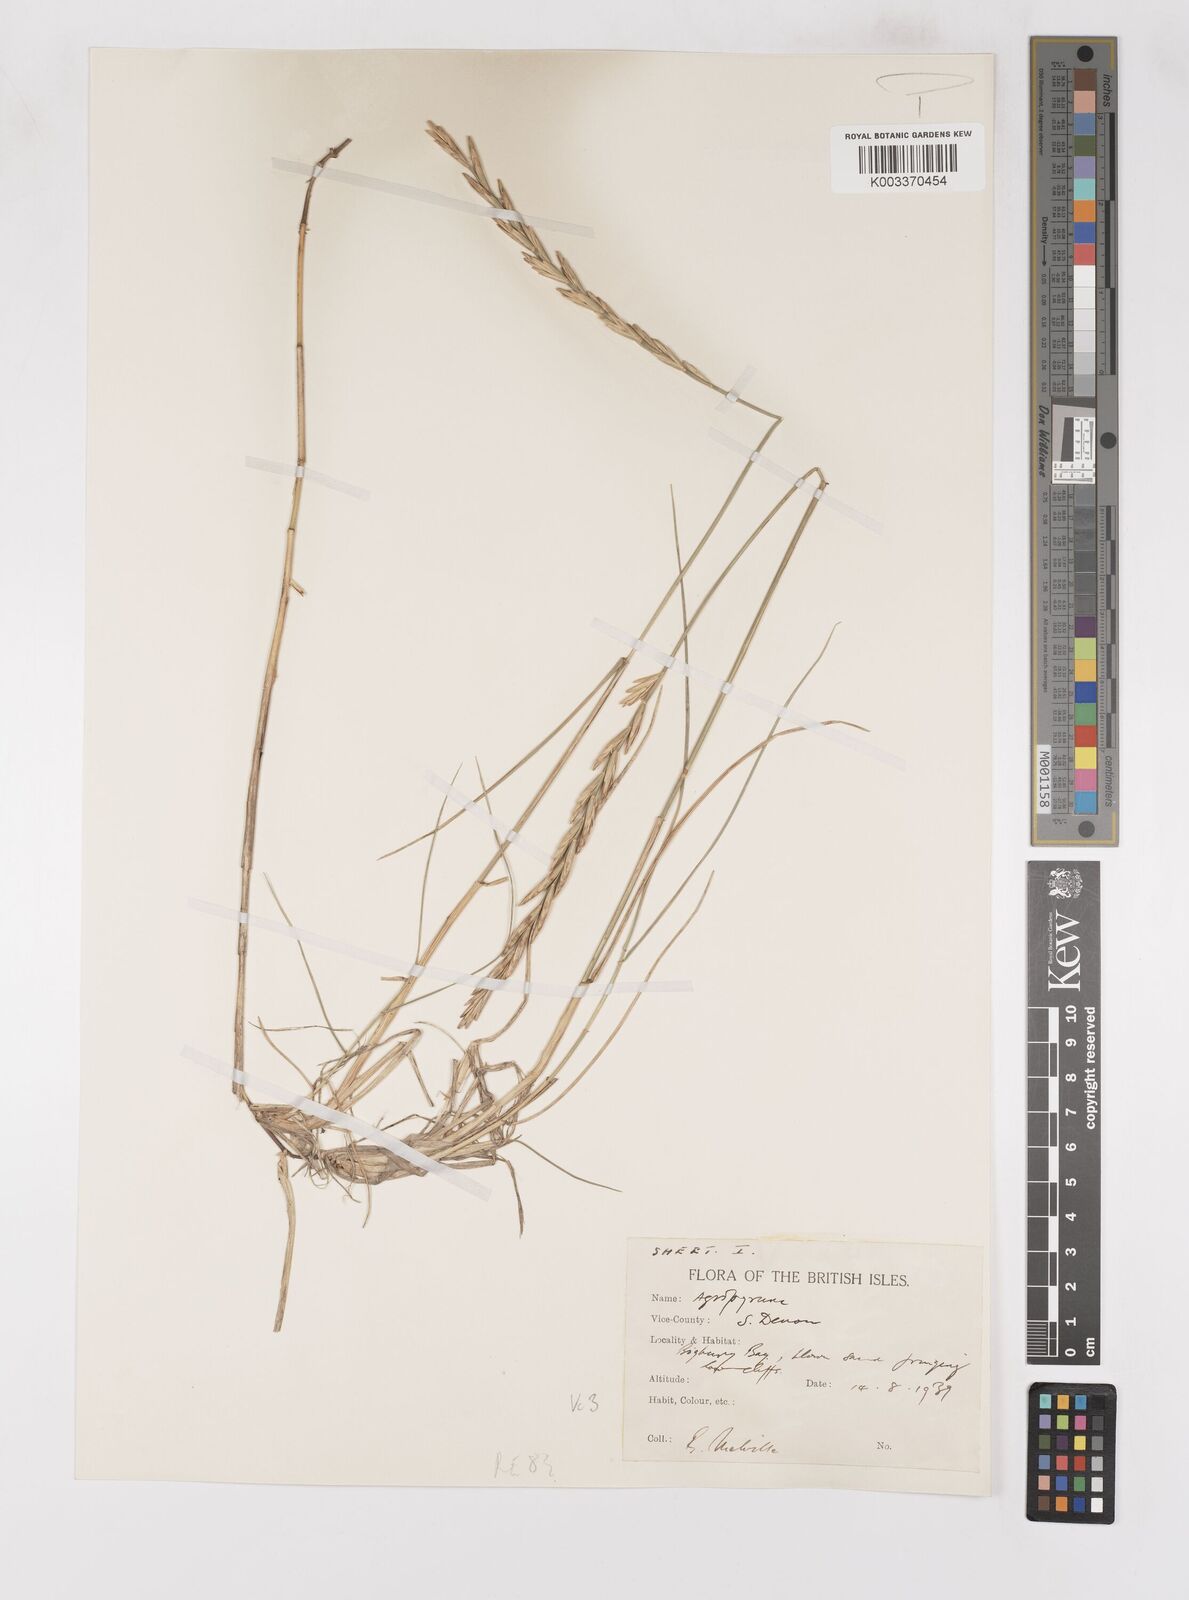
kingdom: Plantae
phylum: Tracheophyta
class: Liliopsida
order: Poales
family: Poaceae
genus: Thinoelymus
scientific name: Thinoelymus obtusiusculus
